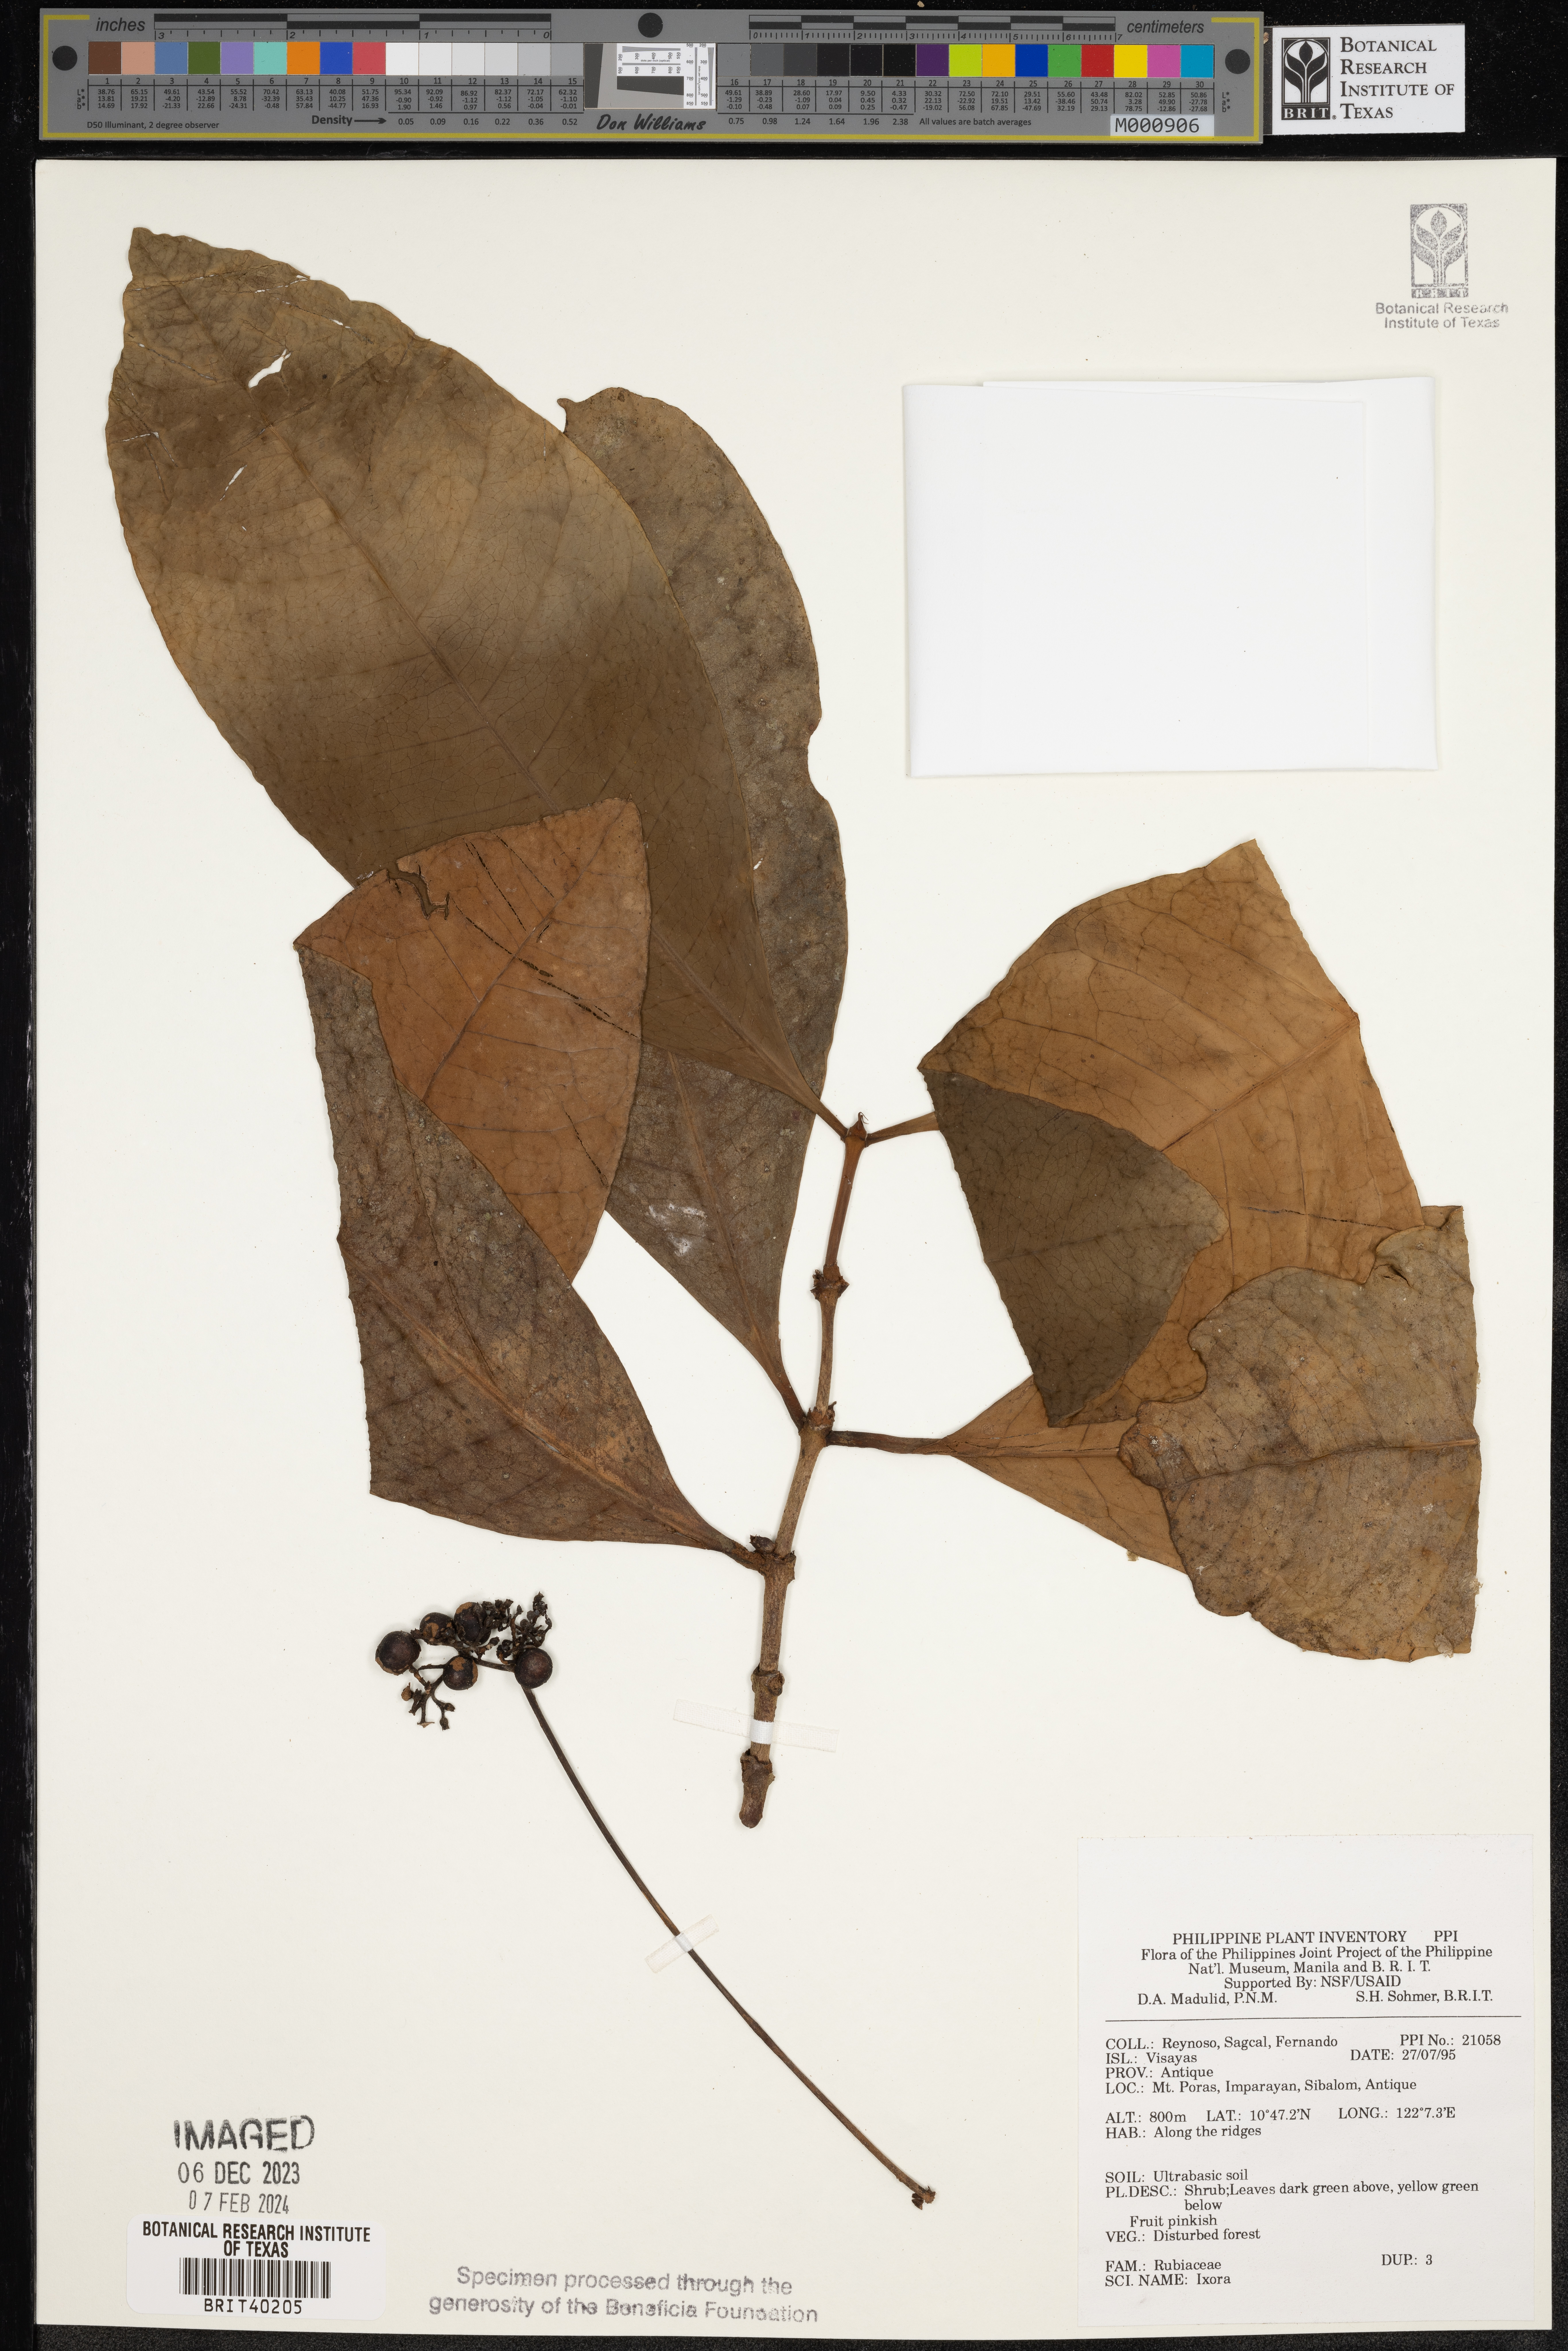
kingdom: Plantae
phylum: Tracheophyta
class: Magnoliopsida
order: Gentianales
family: Rubiaceae
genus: Ixora
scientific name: Ixora
